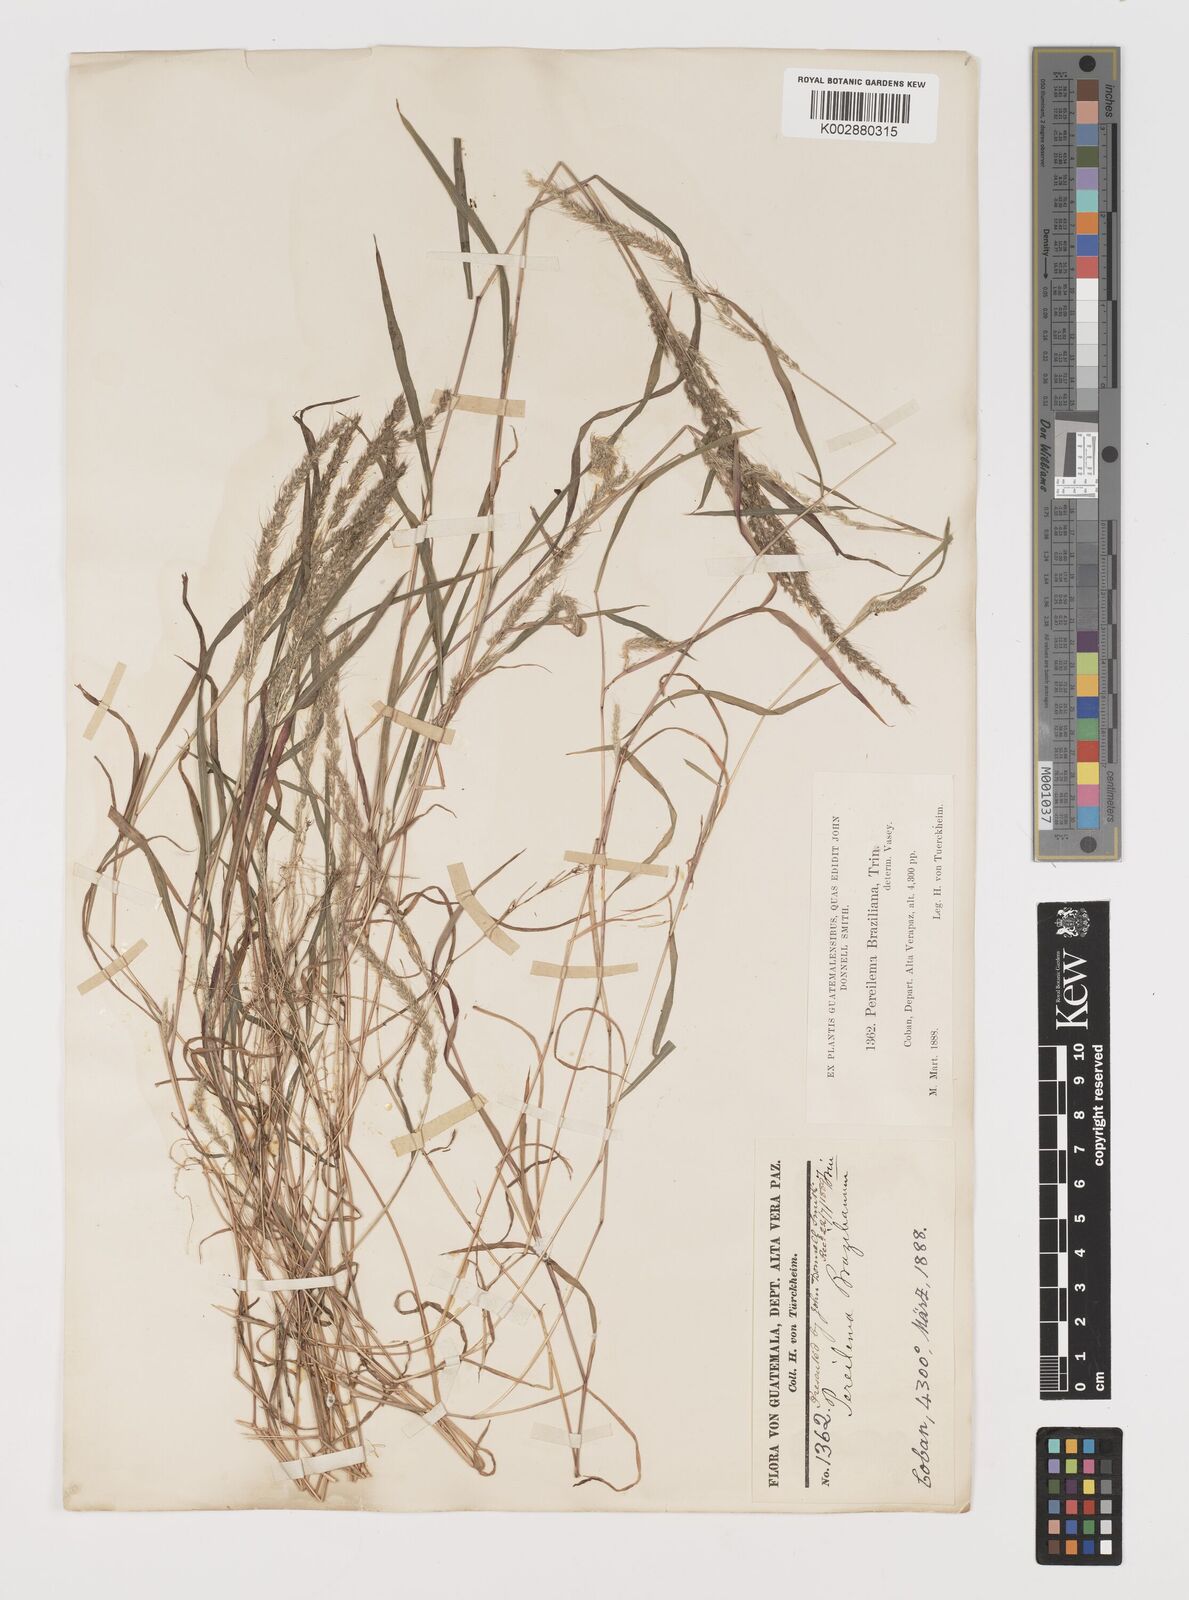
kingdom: Plantae
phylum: Tracheophyta
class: Liliopsida
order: Poales
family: Poaceae
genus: Muhlenbergia
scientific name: Muhlenbergia pereilema
